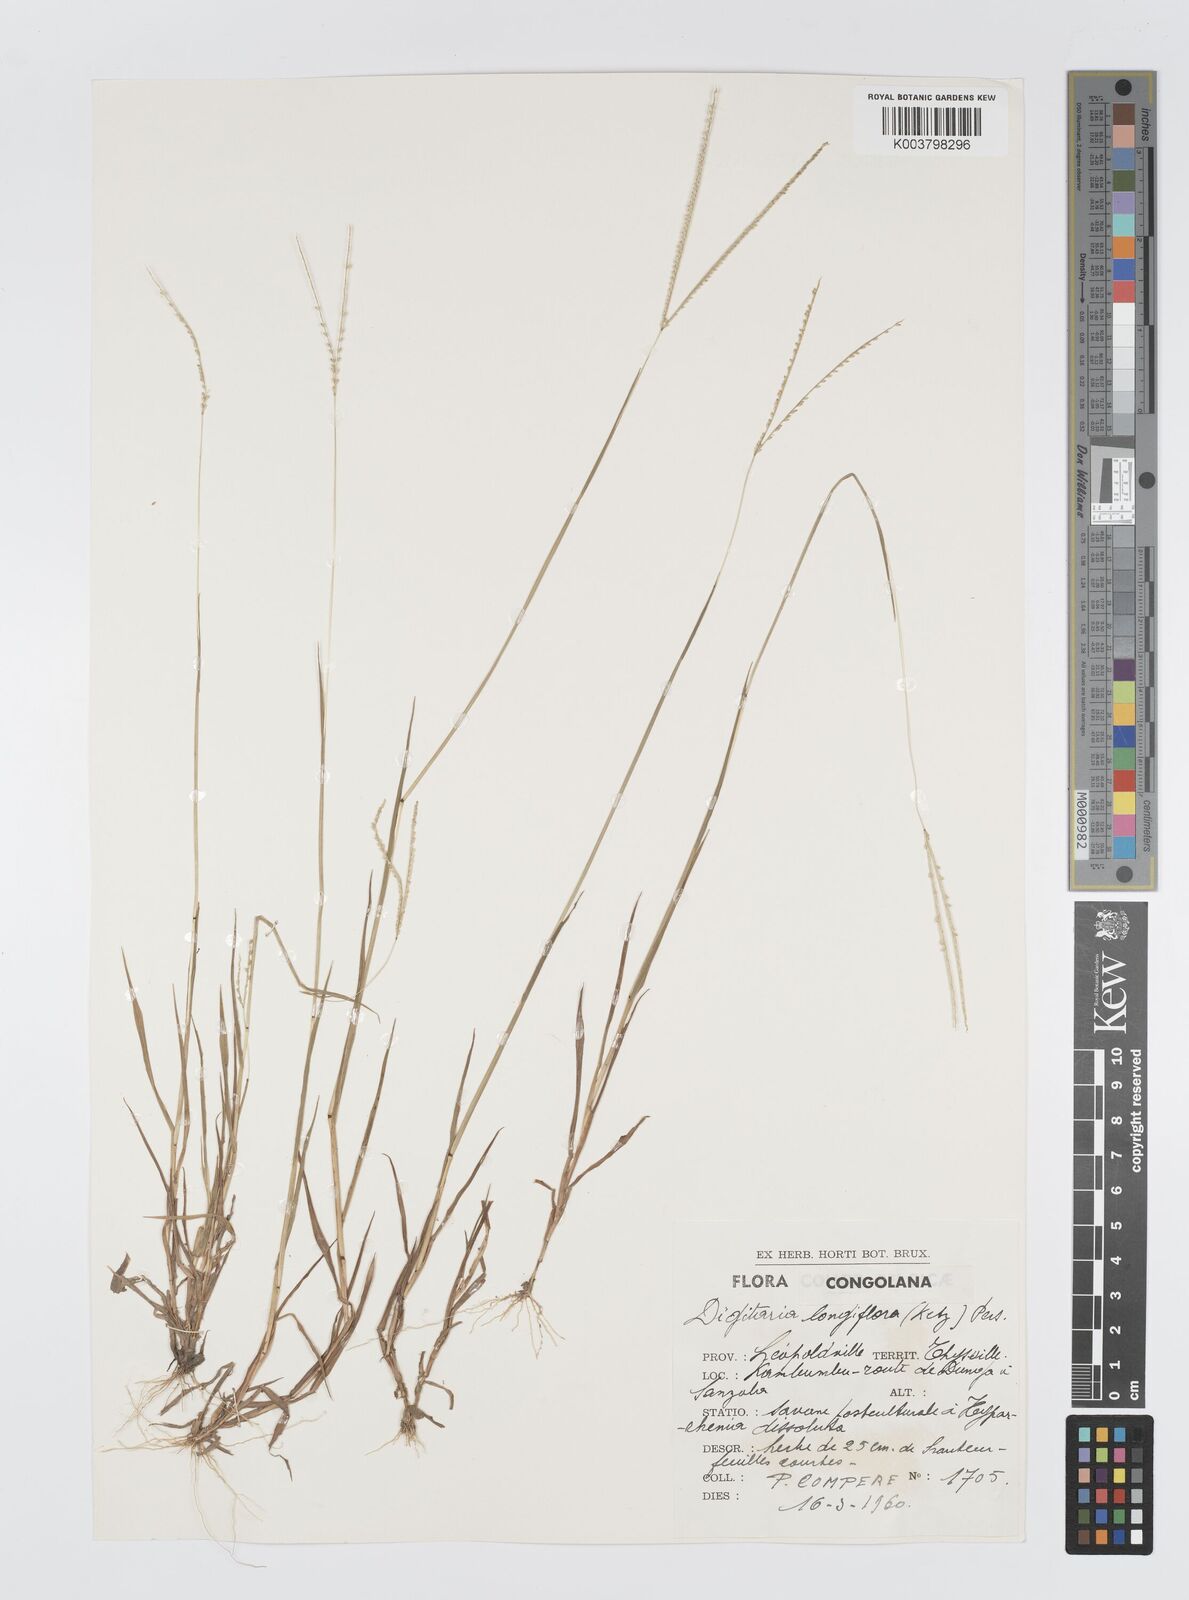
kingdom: Plantae
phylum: Tracheophyta
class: Liliopsida
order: Poales
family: Poaceae
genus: Digitaria
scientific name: Digitaria longiflora
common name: Wire crabgrass
